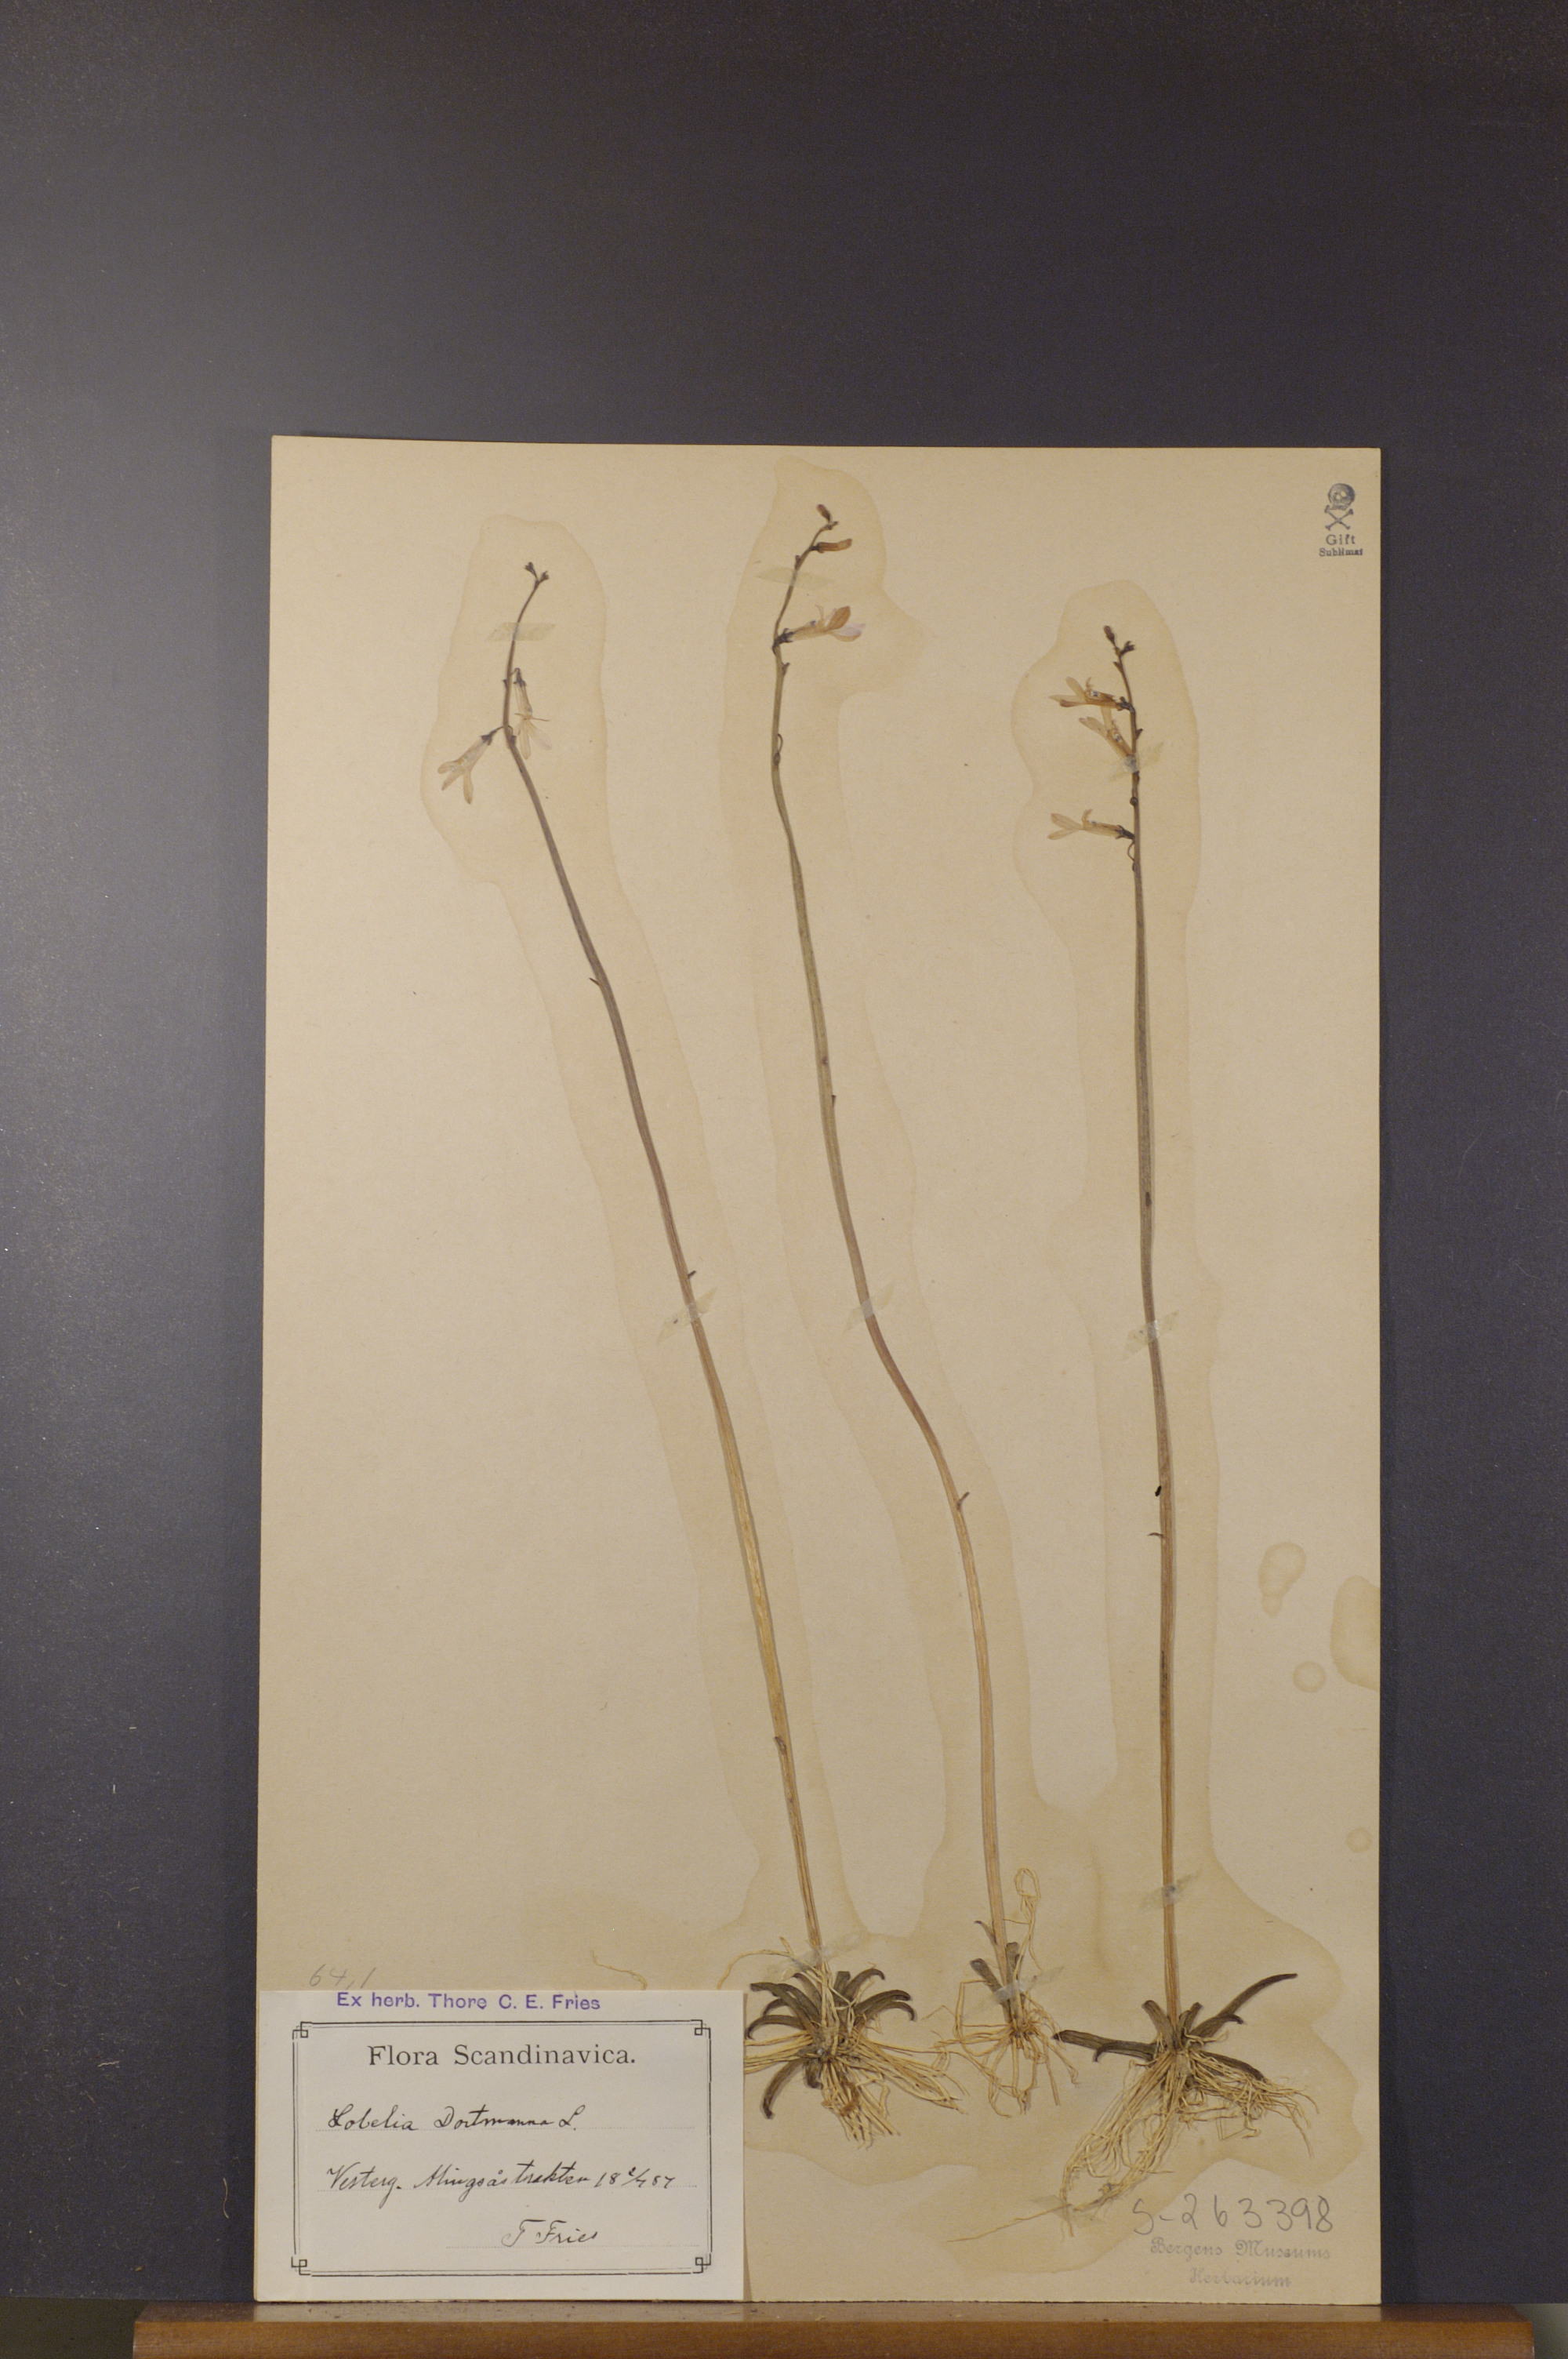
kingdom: Plantae
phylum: Tracheophyta
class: Magnoliopsida
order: Asterales
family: Campanulaceae
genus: Lobelia
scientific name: Lobelia dortmanna
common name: Water lobelia
